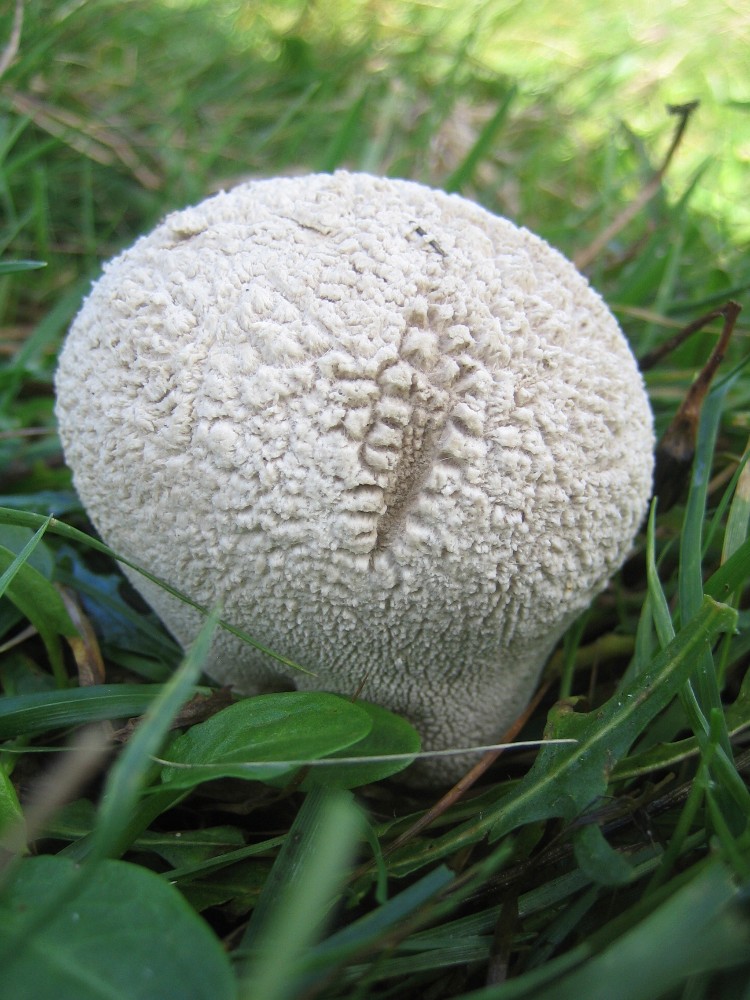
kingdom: Fungi
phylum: Basidiomycota
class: Agaricomycetes
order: Agaricales
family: Lycoperdaceae
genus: Bovistella
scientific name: Bovistella utriformis
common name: skællet støvbold
